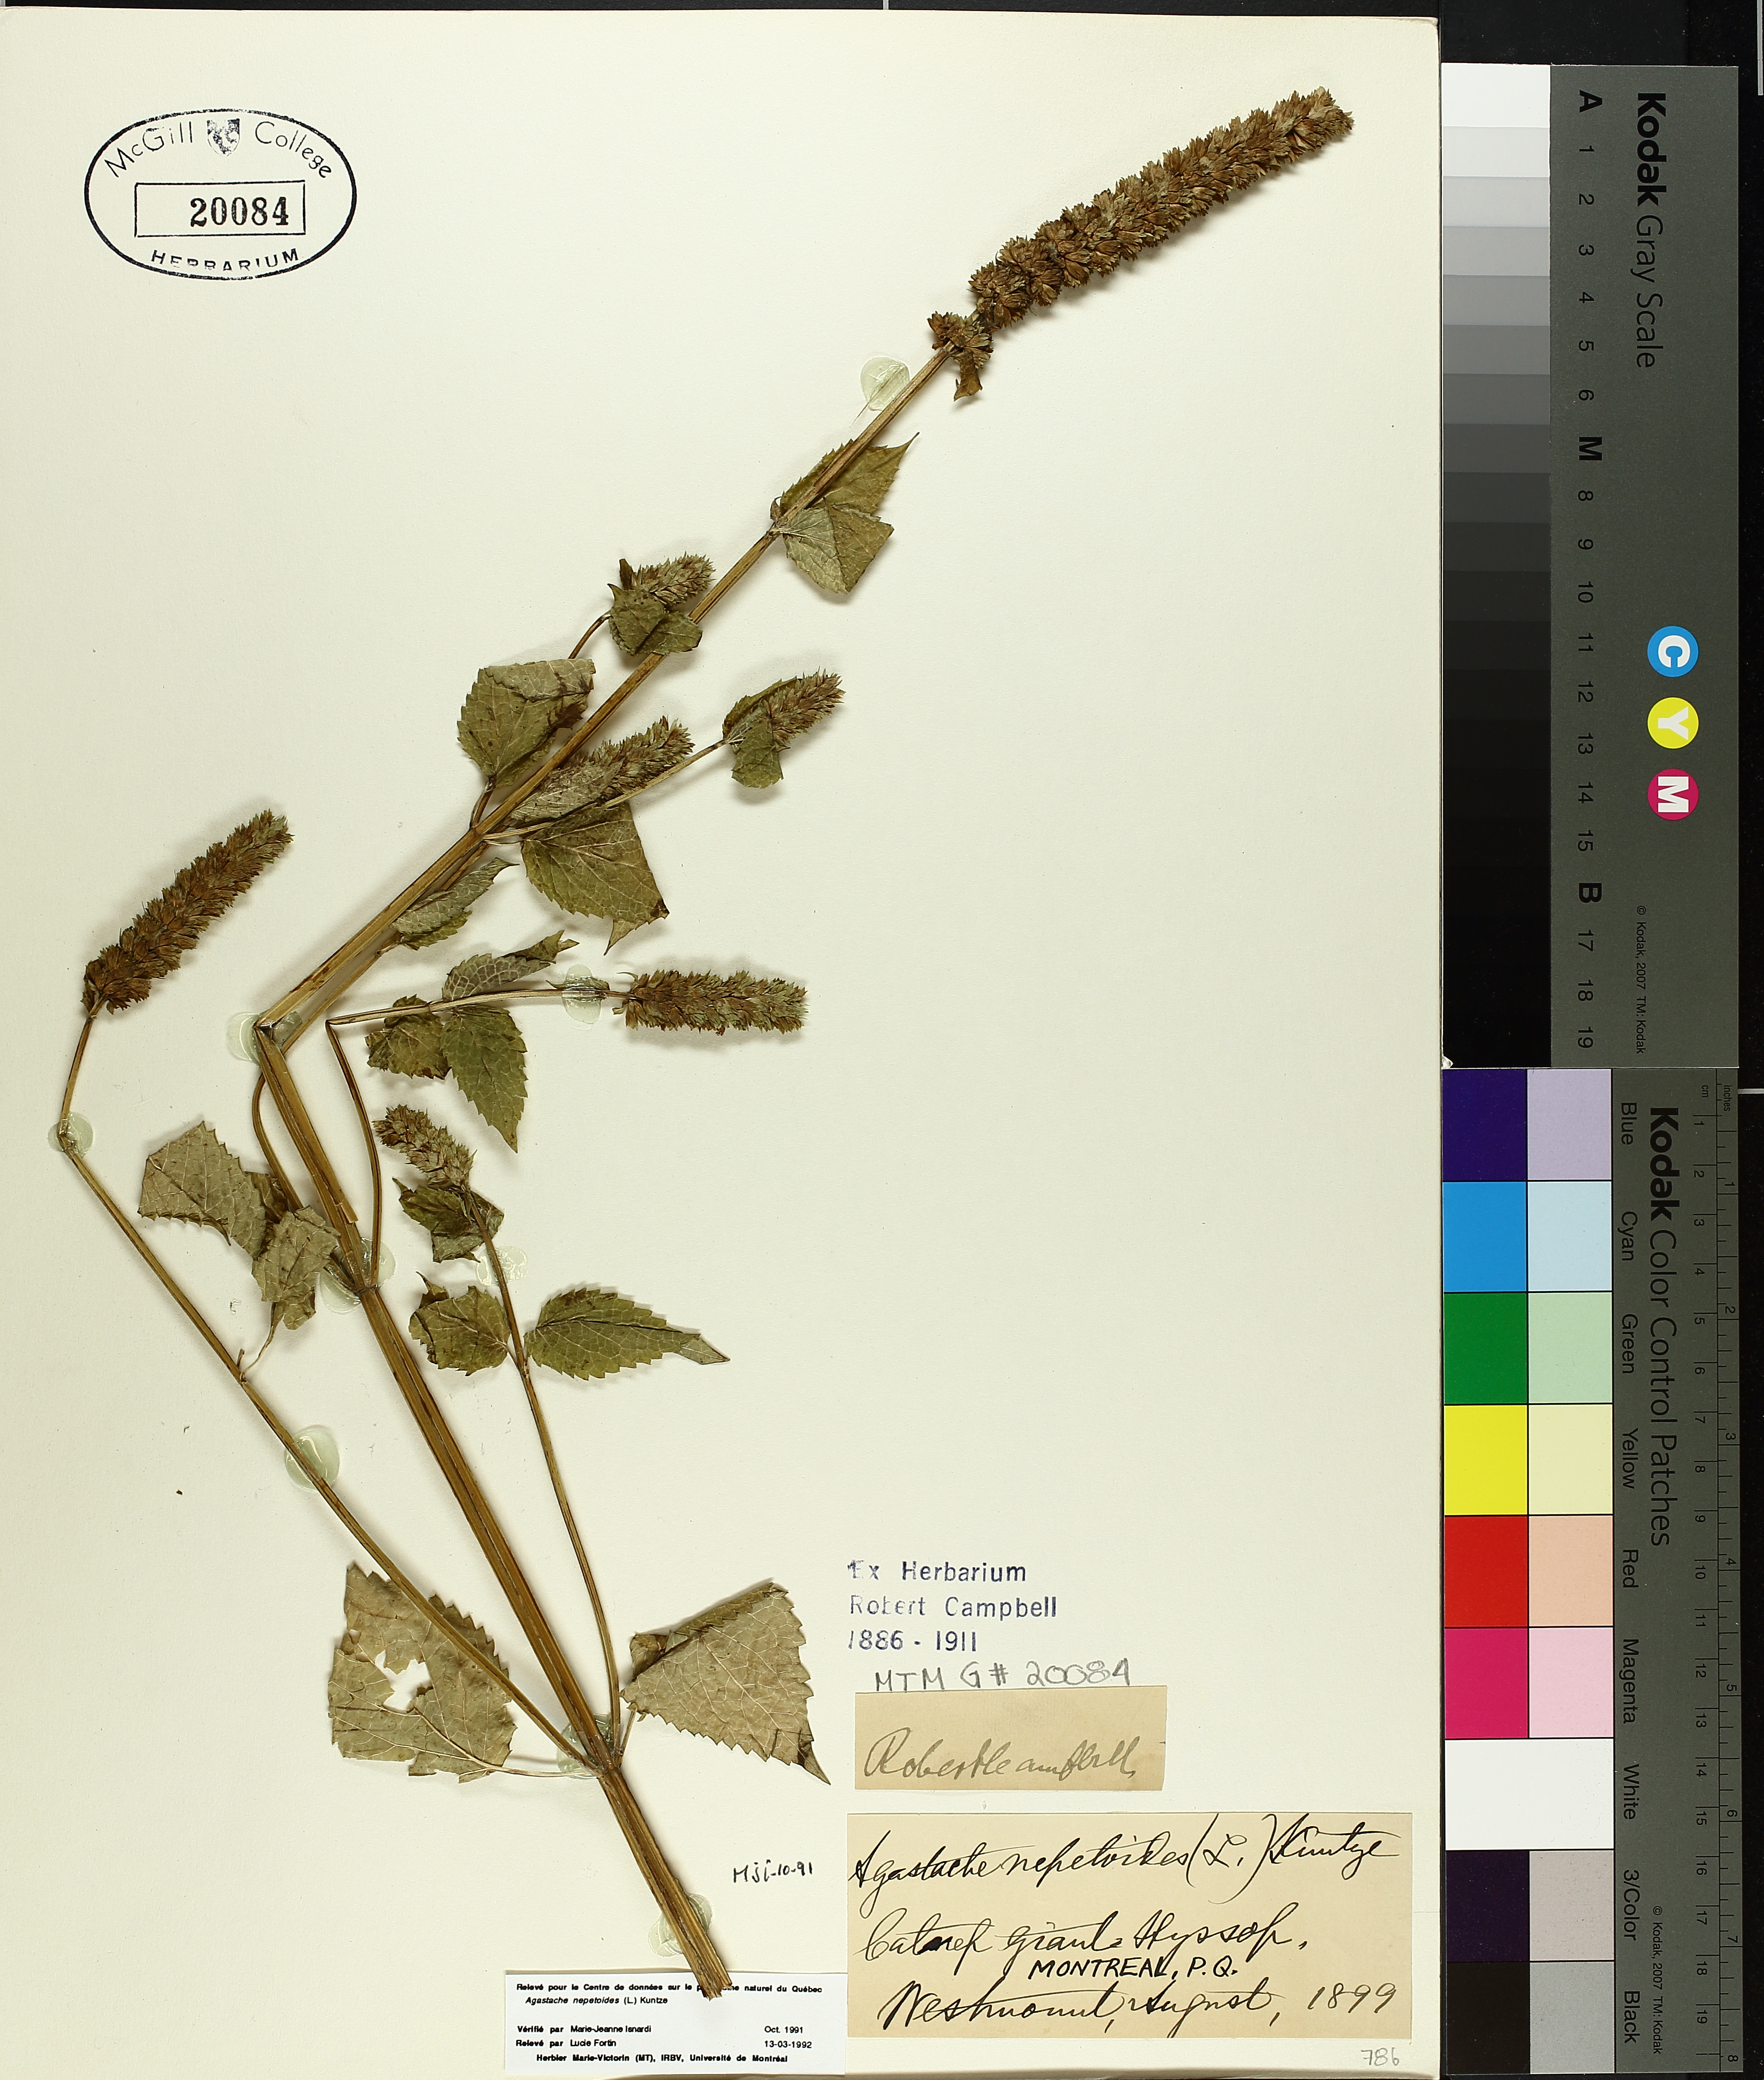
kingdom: Plantae
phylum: Tracheophyta
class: Magnoliopsida
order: Lamiales
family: Lamiaceae
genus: Agastache
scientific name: Agastache nepetoides
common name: Catnip giant hyssop
